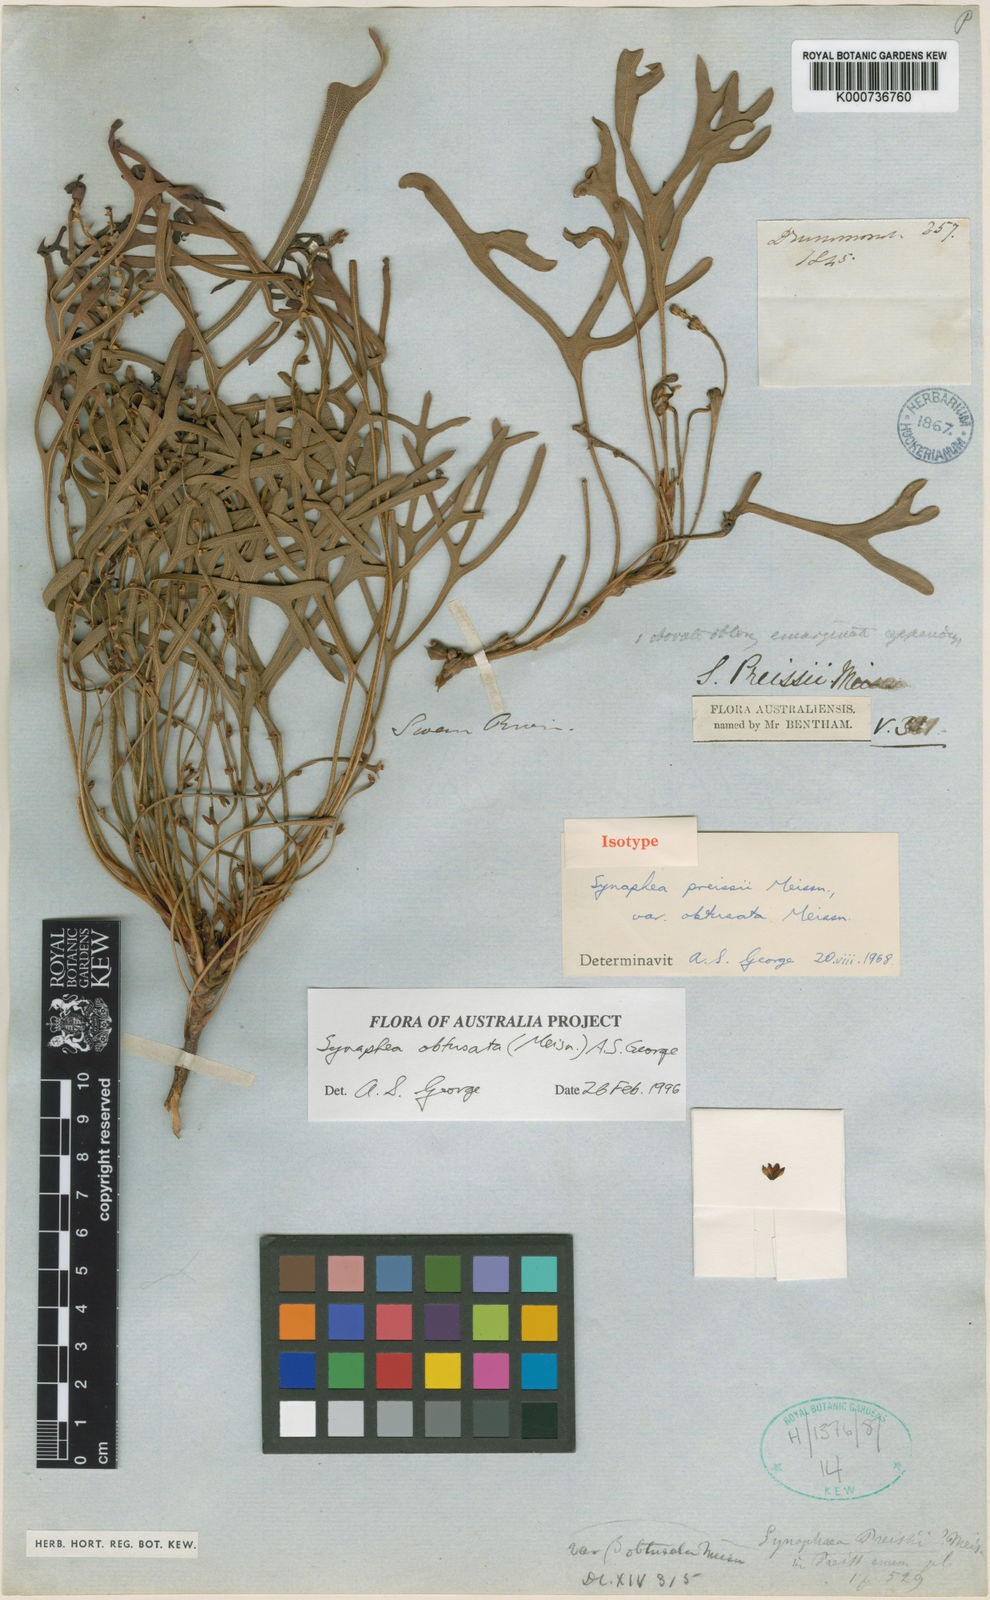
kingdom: Plantae
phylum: Tracheophyta
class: Magnoliopsida
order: Proteales
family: Proteaceae
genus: Synaphea
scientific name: Synaphea obtusata
